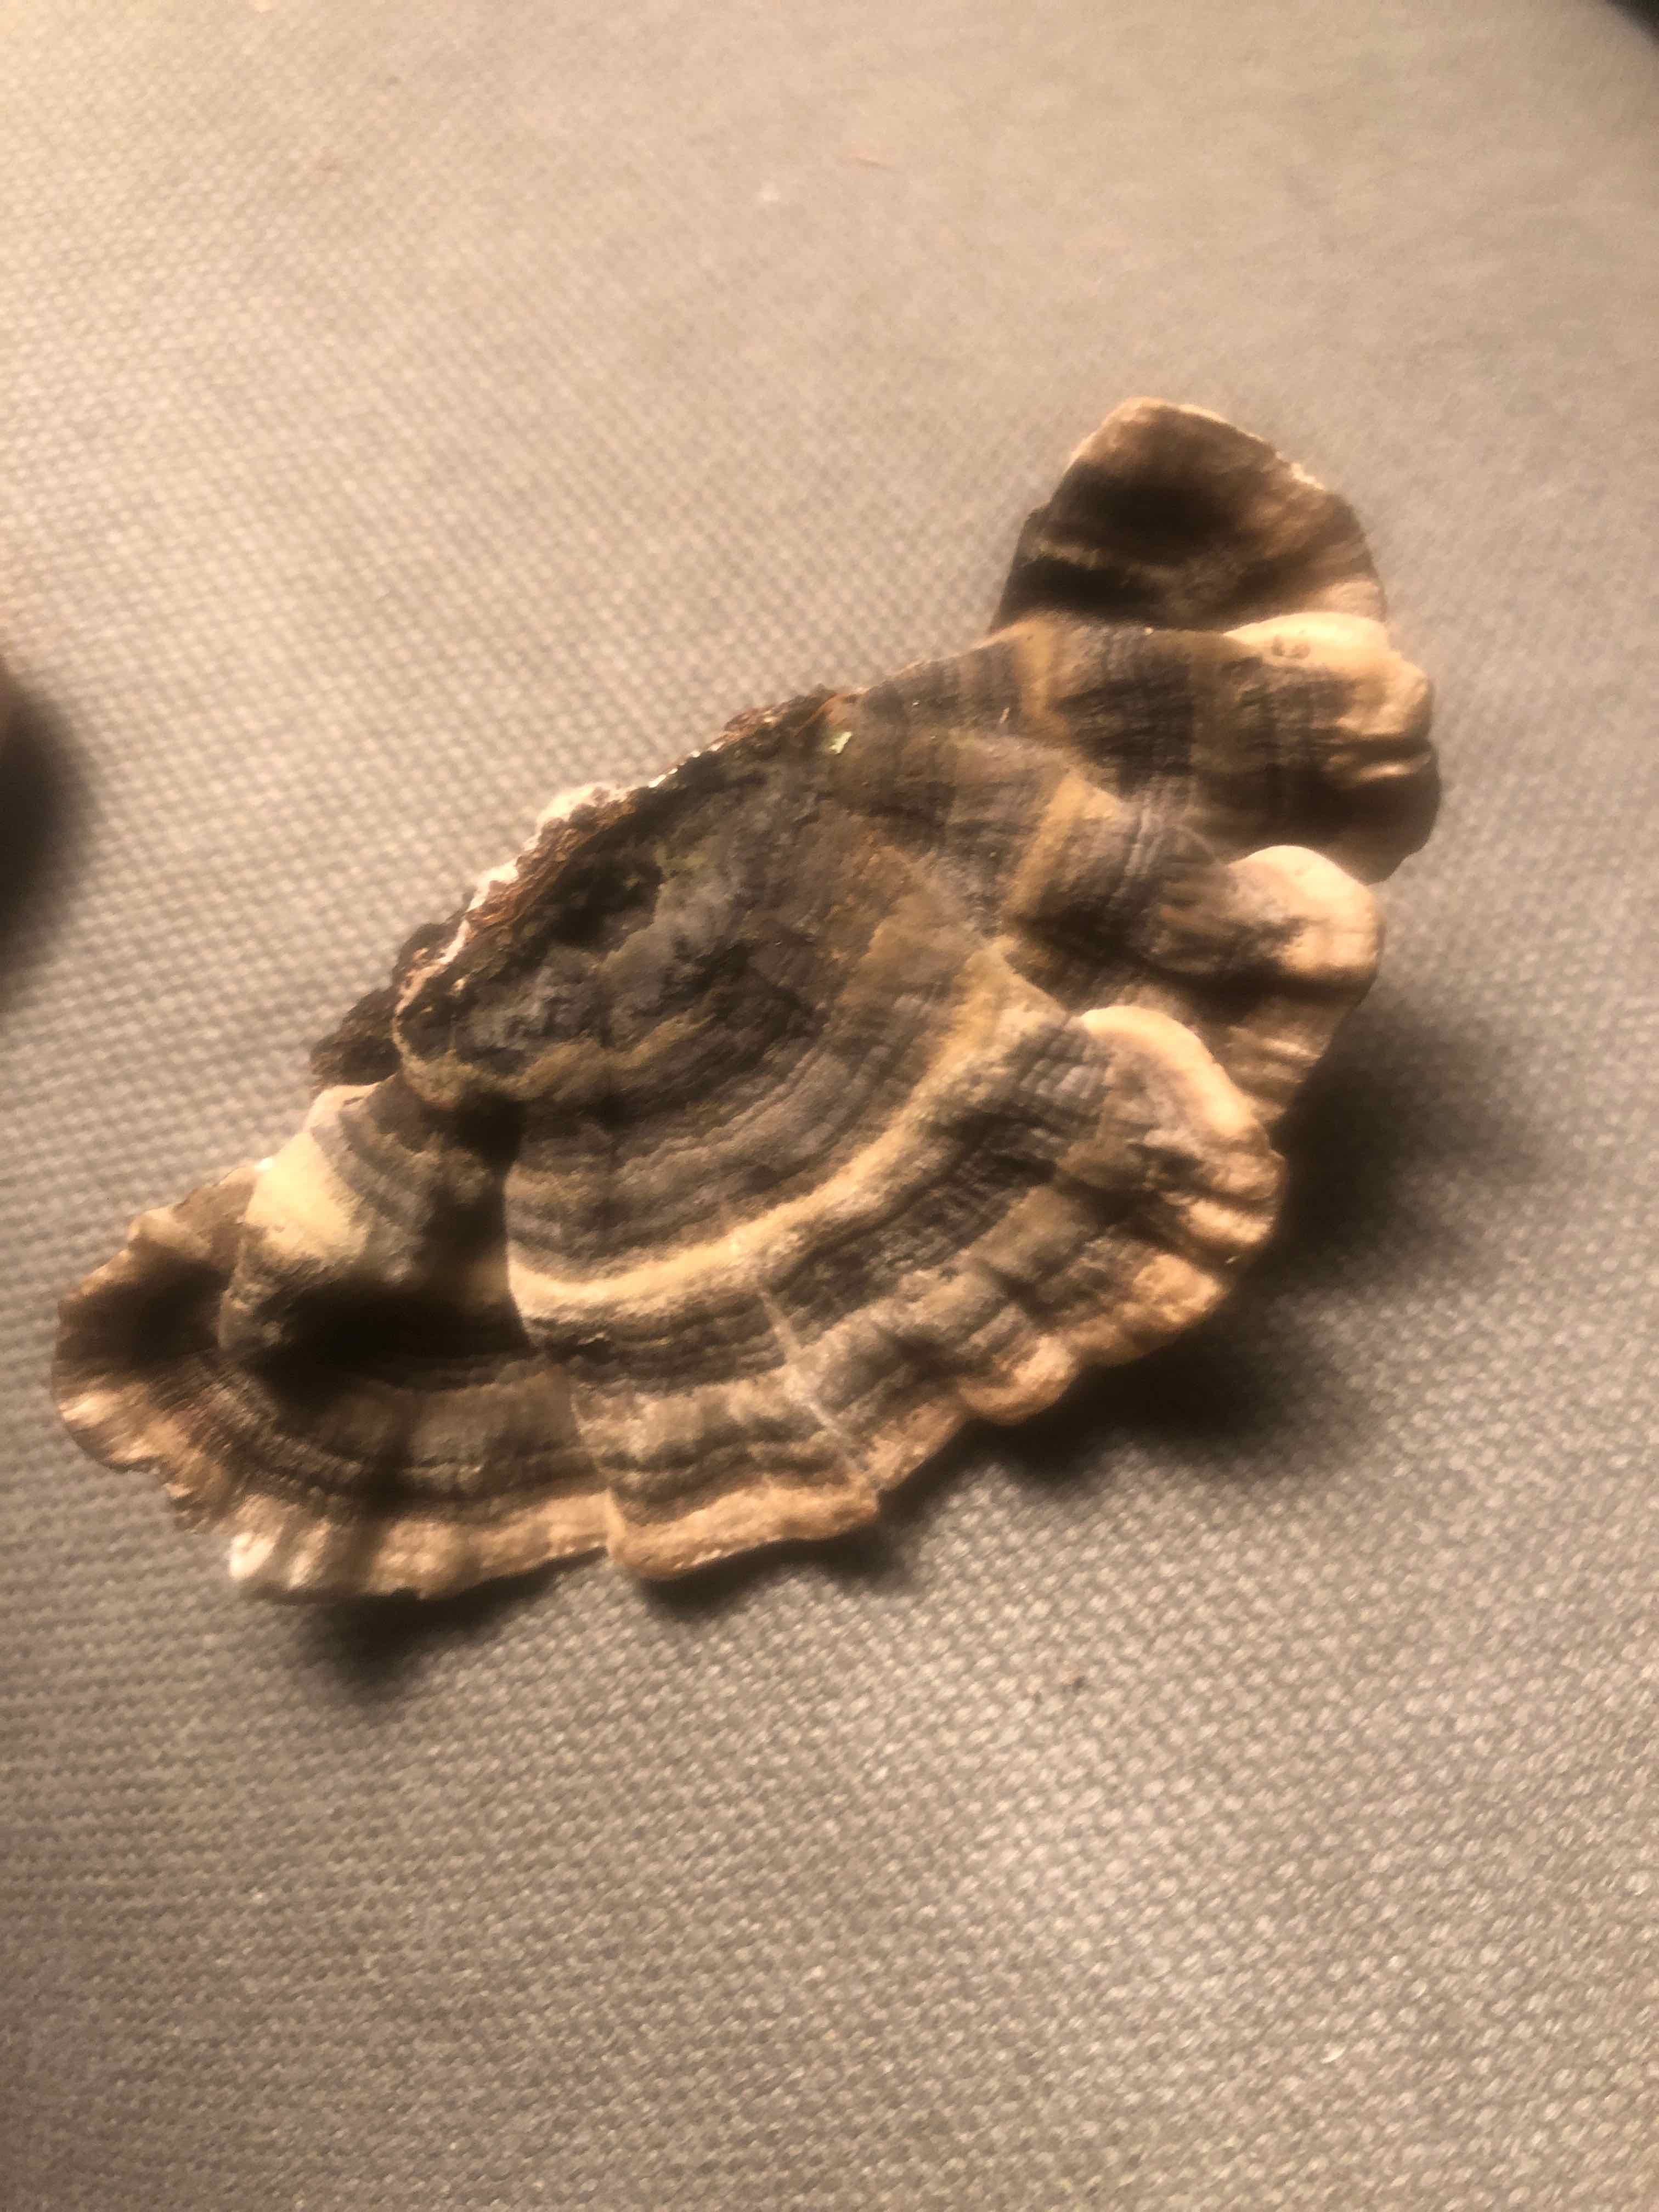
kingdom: Fungi
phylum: Basidiomycota
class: Agaricomycetes
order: Polyporales
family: Polyporaceae
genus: Trametes
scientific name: Trametes versicolor
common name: broget læderporesvamp
